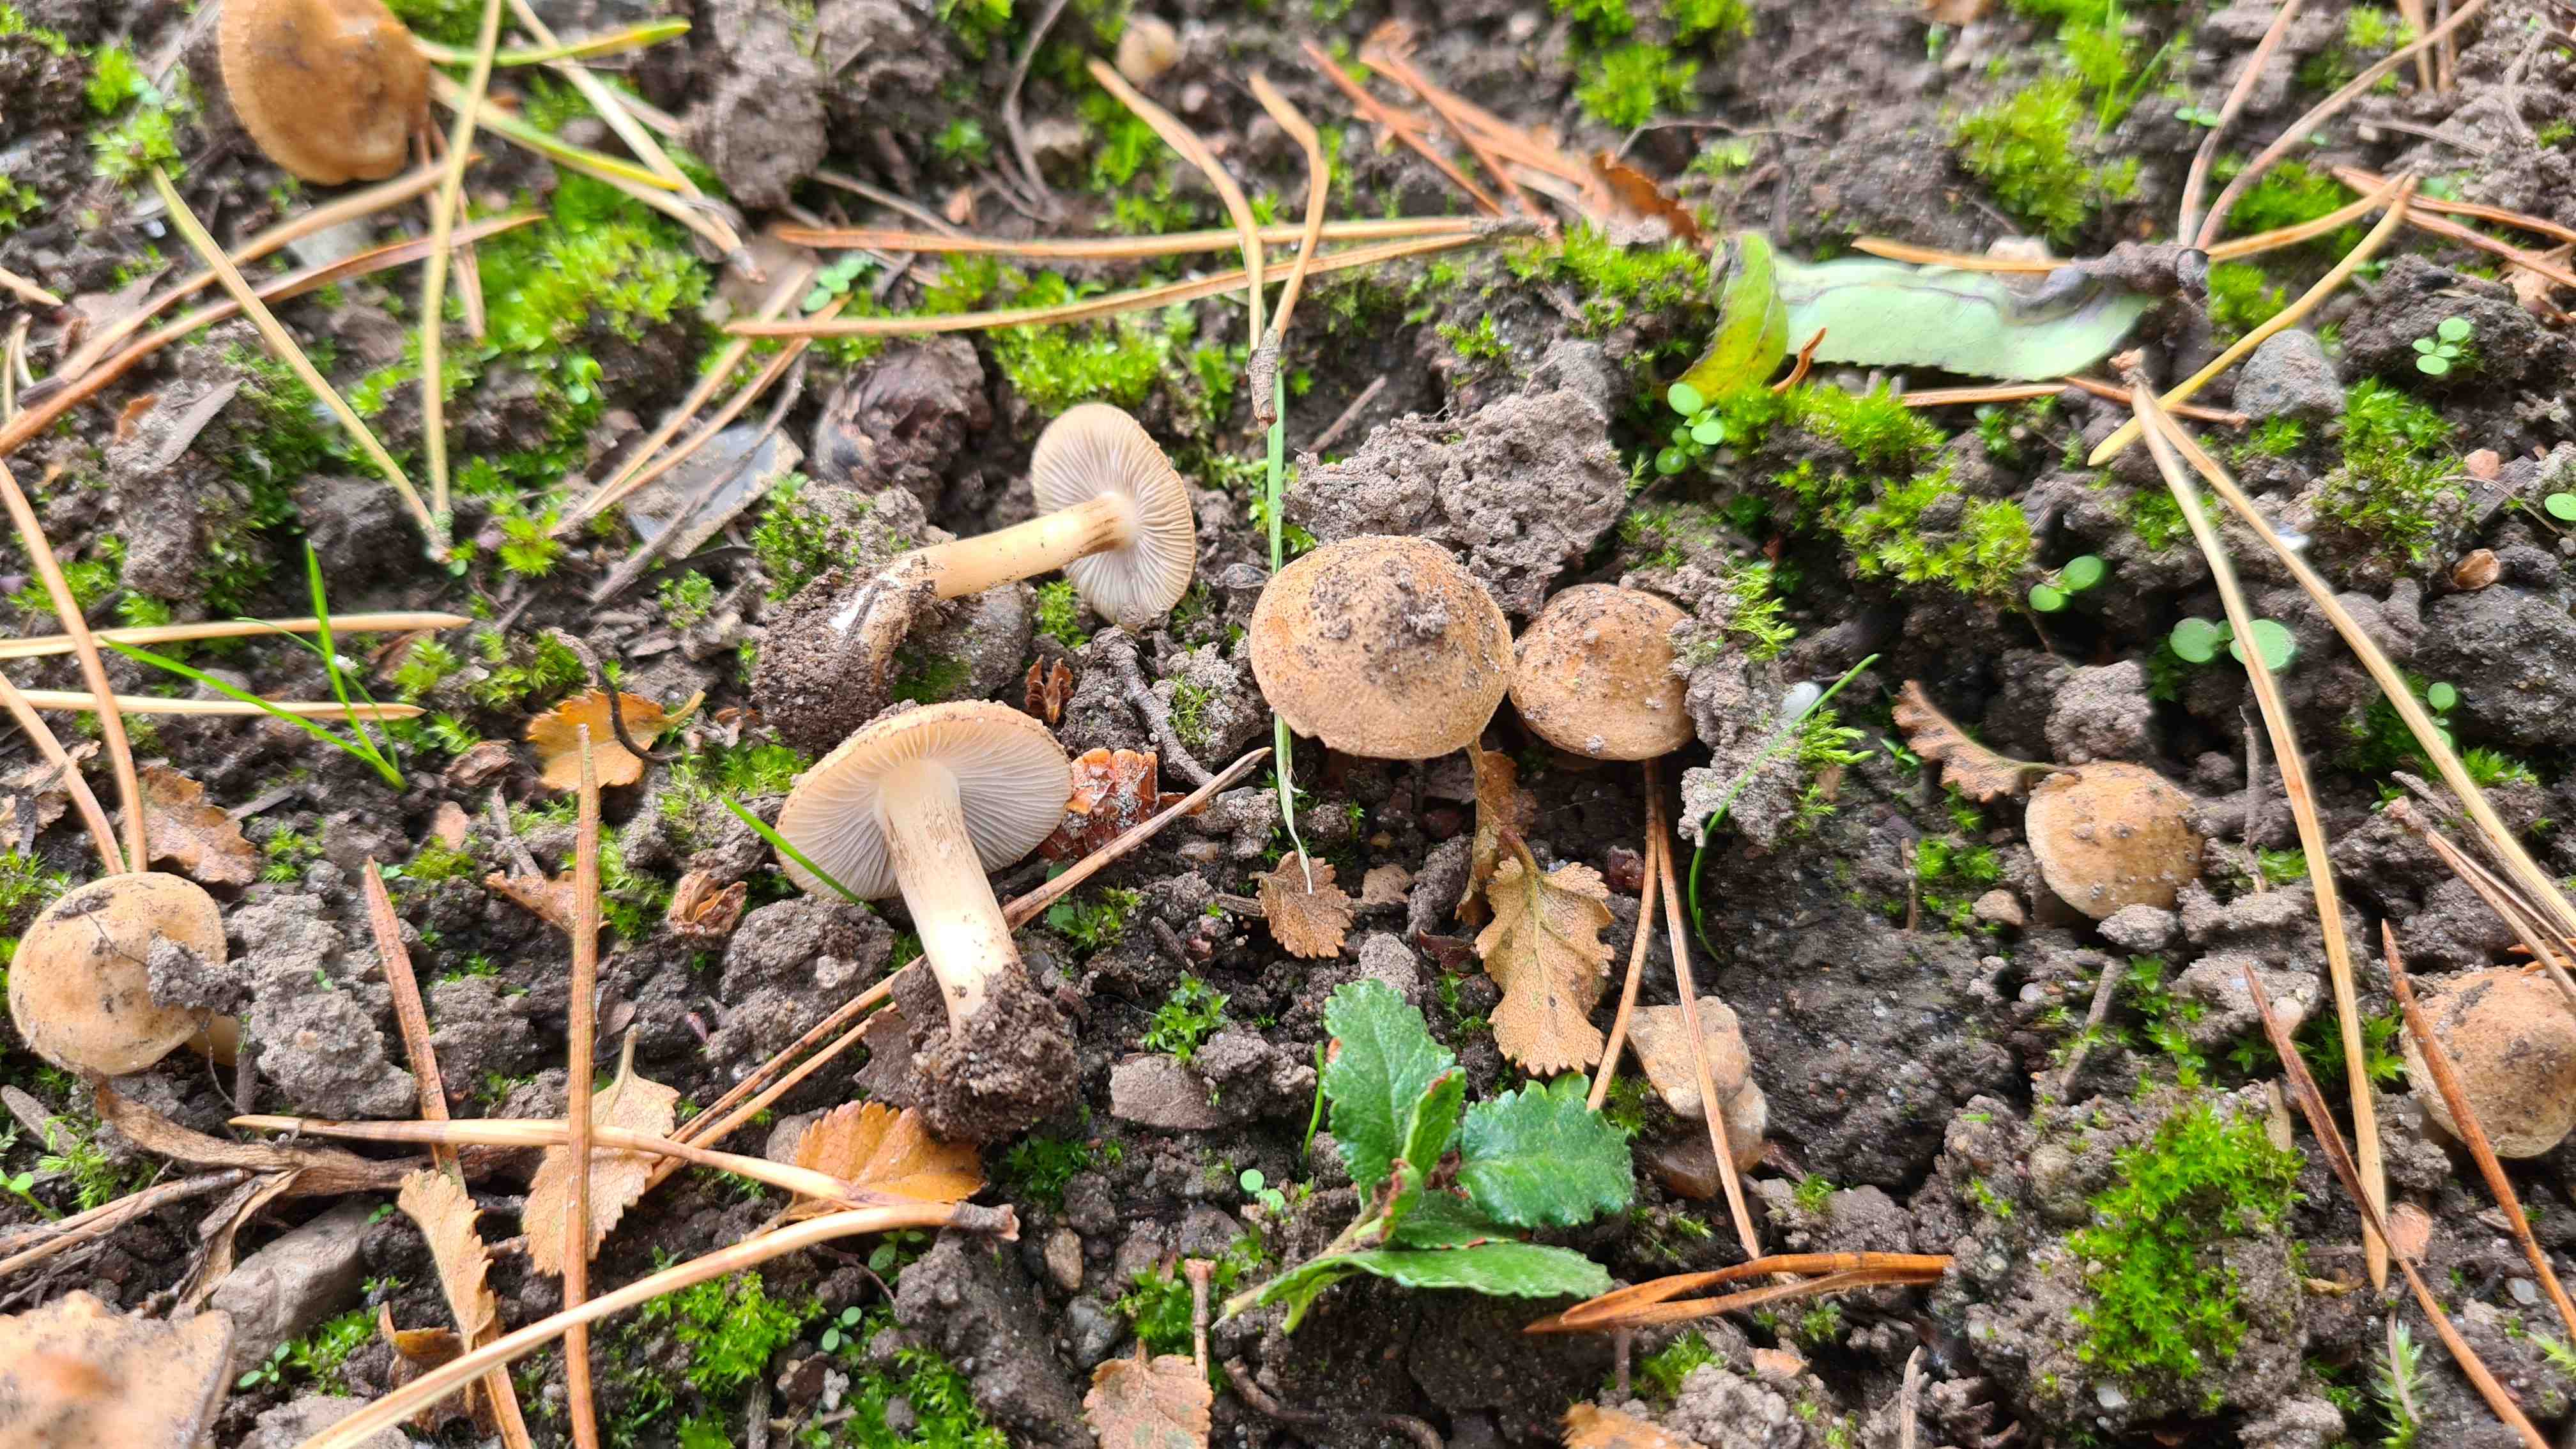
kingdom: Fungi
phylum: Basidiomycota
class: Agaricomycetes
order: Agaricales
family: Inocybaceae
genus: Inocybe
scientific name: Inocybe
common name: trævlhat
